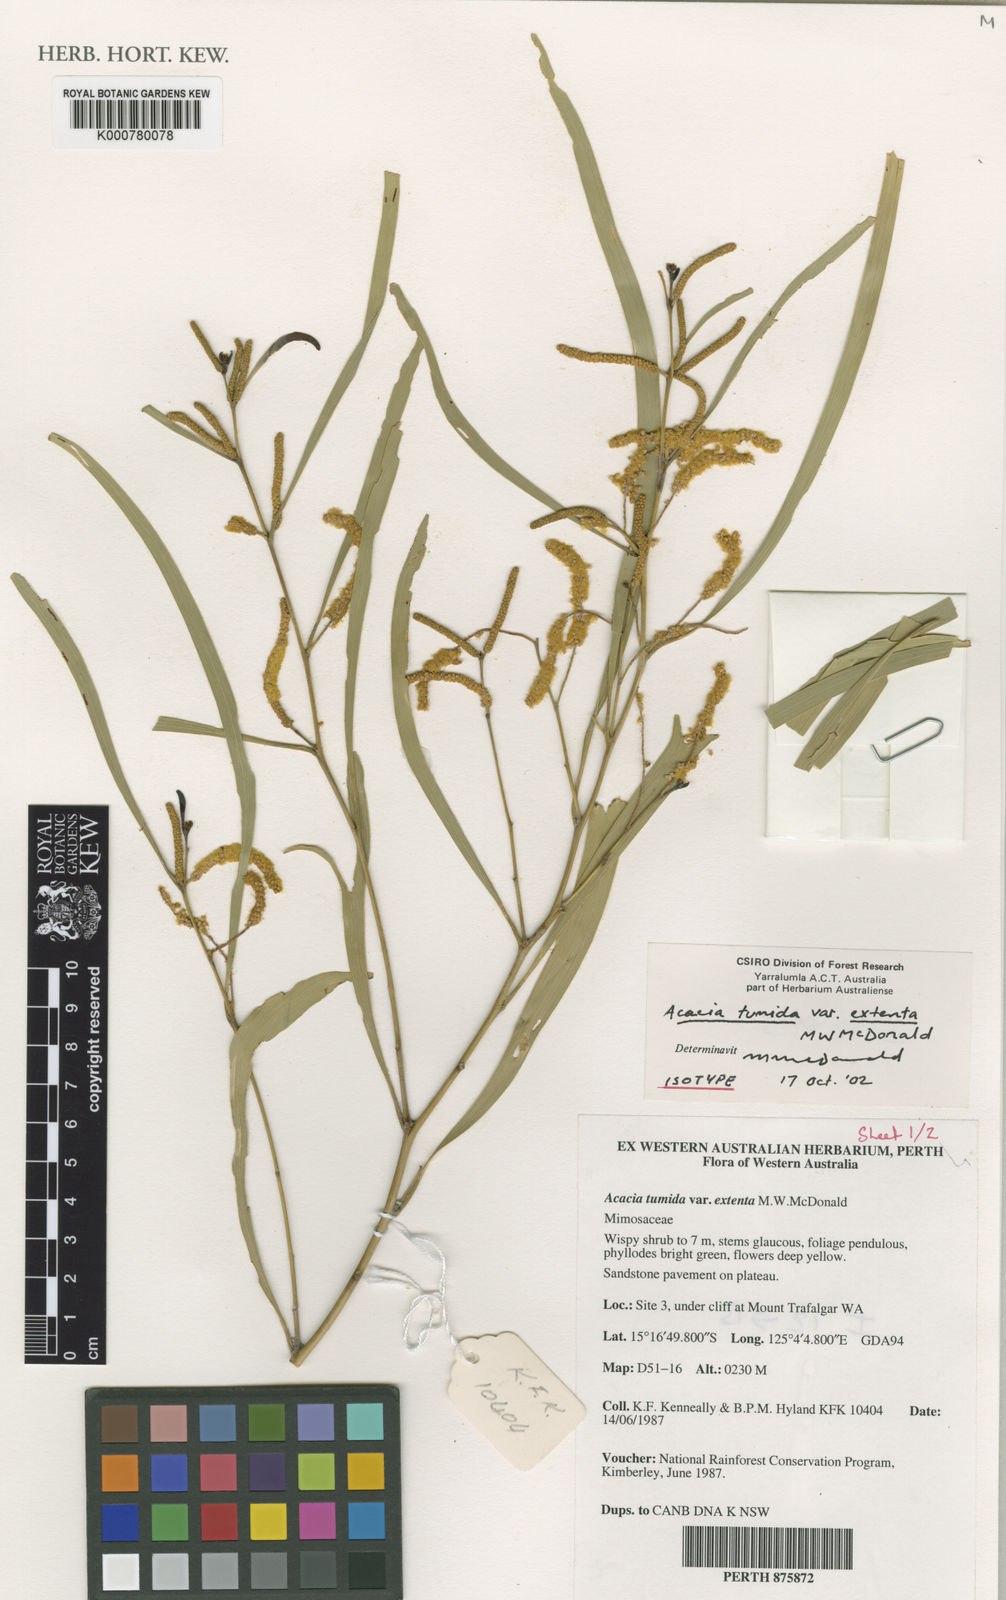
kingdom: Plantae
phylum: Tracheophyta
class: Magnoliopsida
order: Fabales
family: Fabaceae
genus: Acacia
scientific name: Acacia tumida
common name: Pindan wattle
